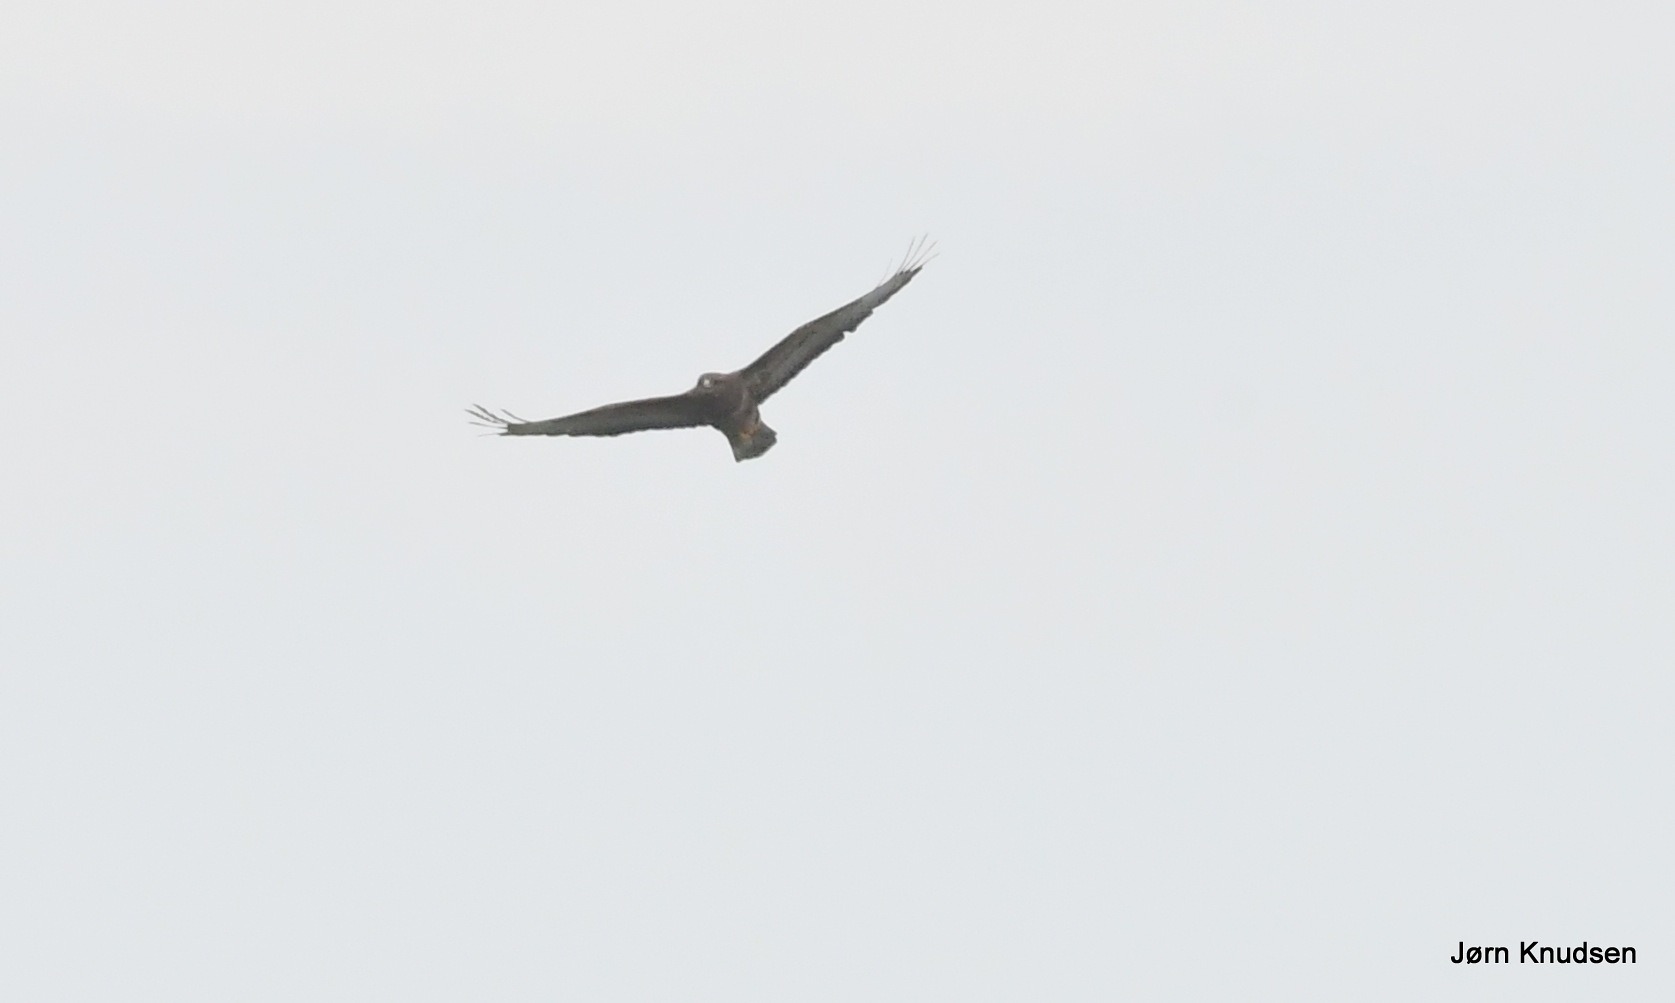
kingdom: Animalia
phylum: Chordata
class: Aves
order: Accipitriformes
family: Accipitridae
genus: Buteo
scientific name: Buteo buteo
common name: Musvåge
